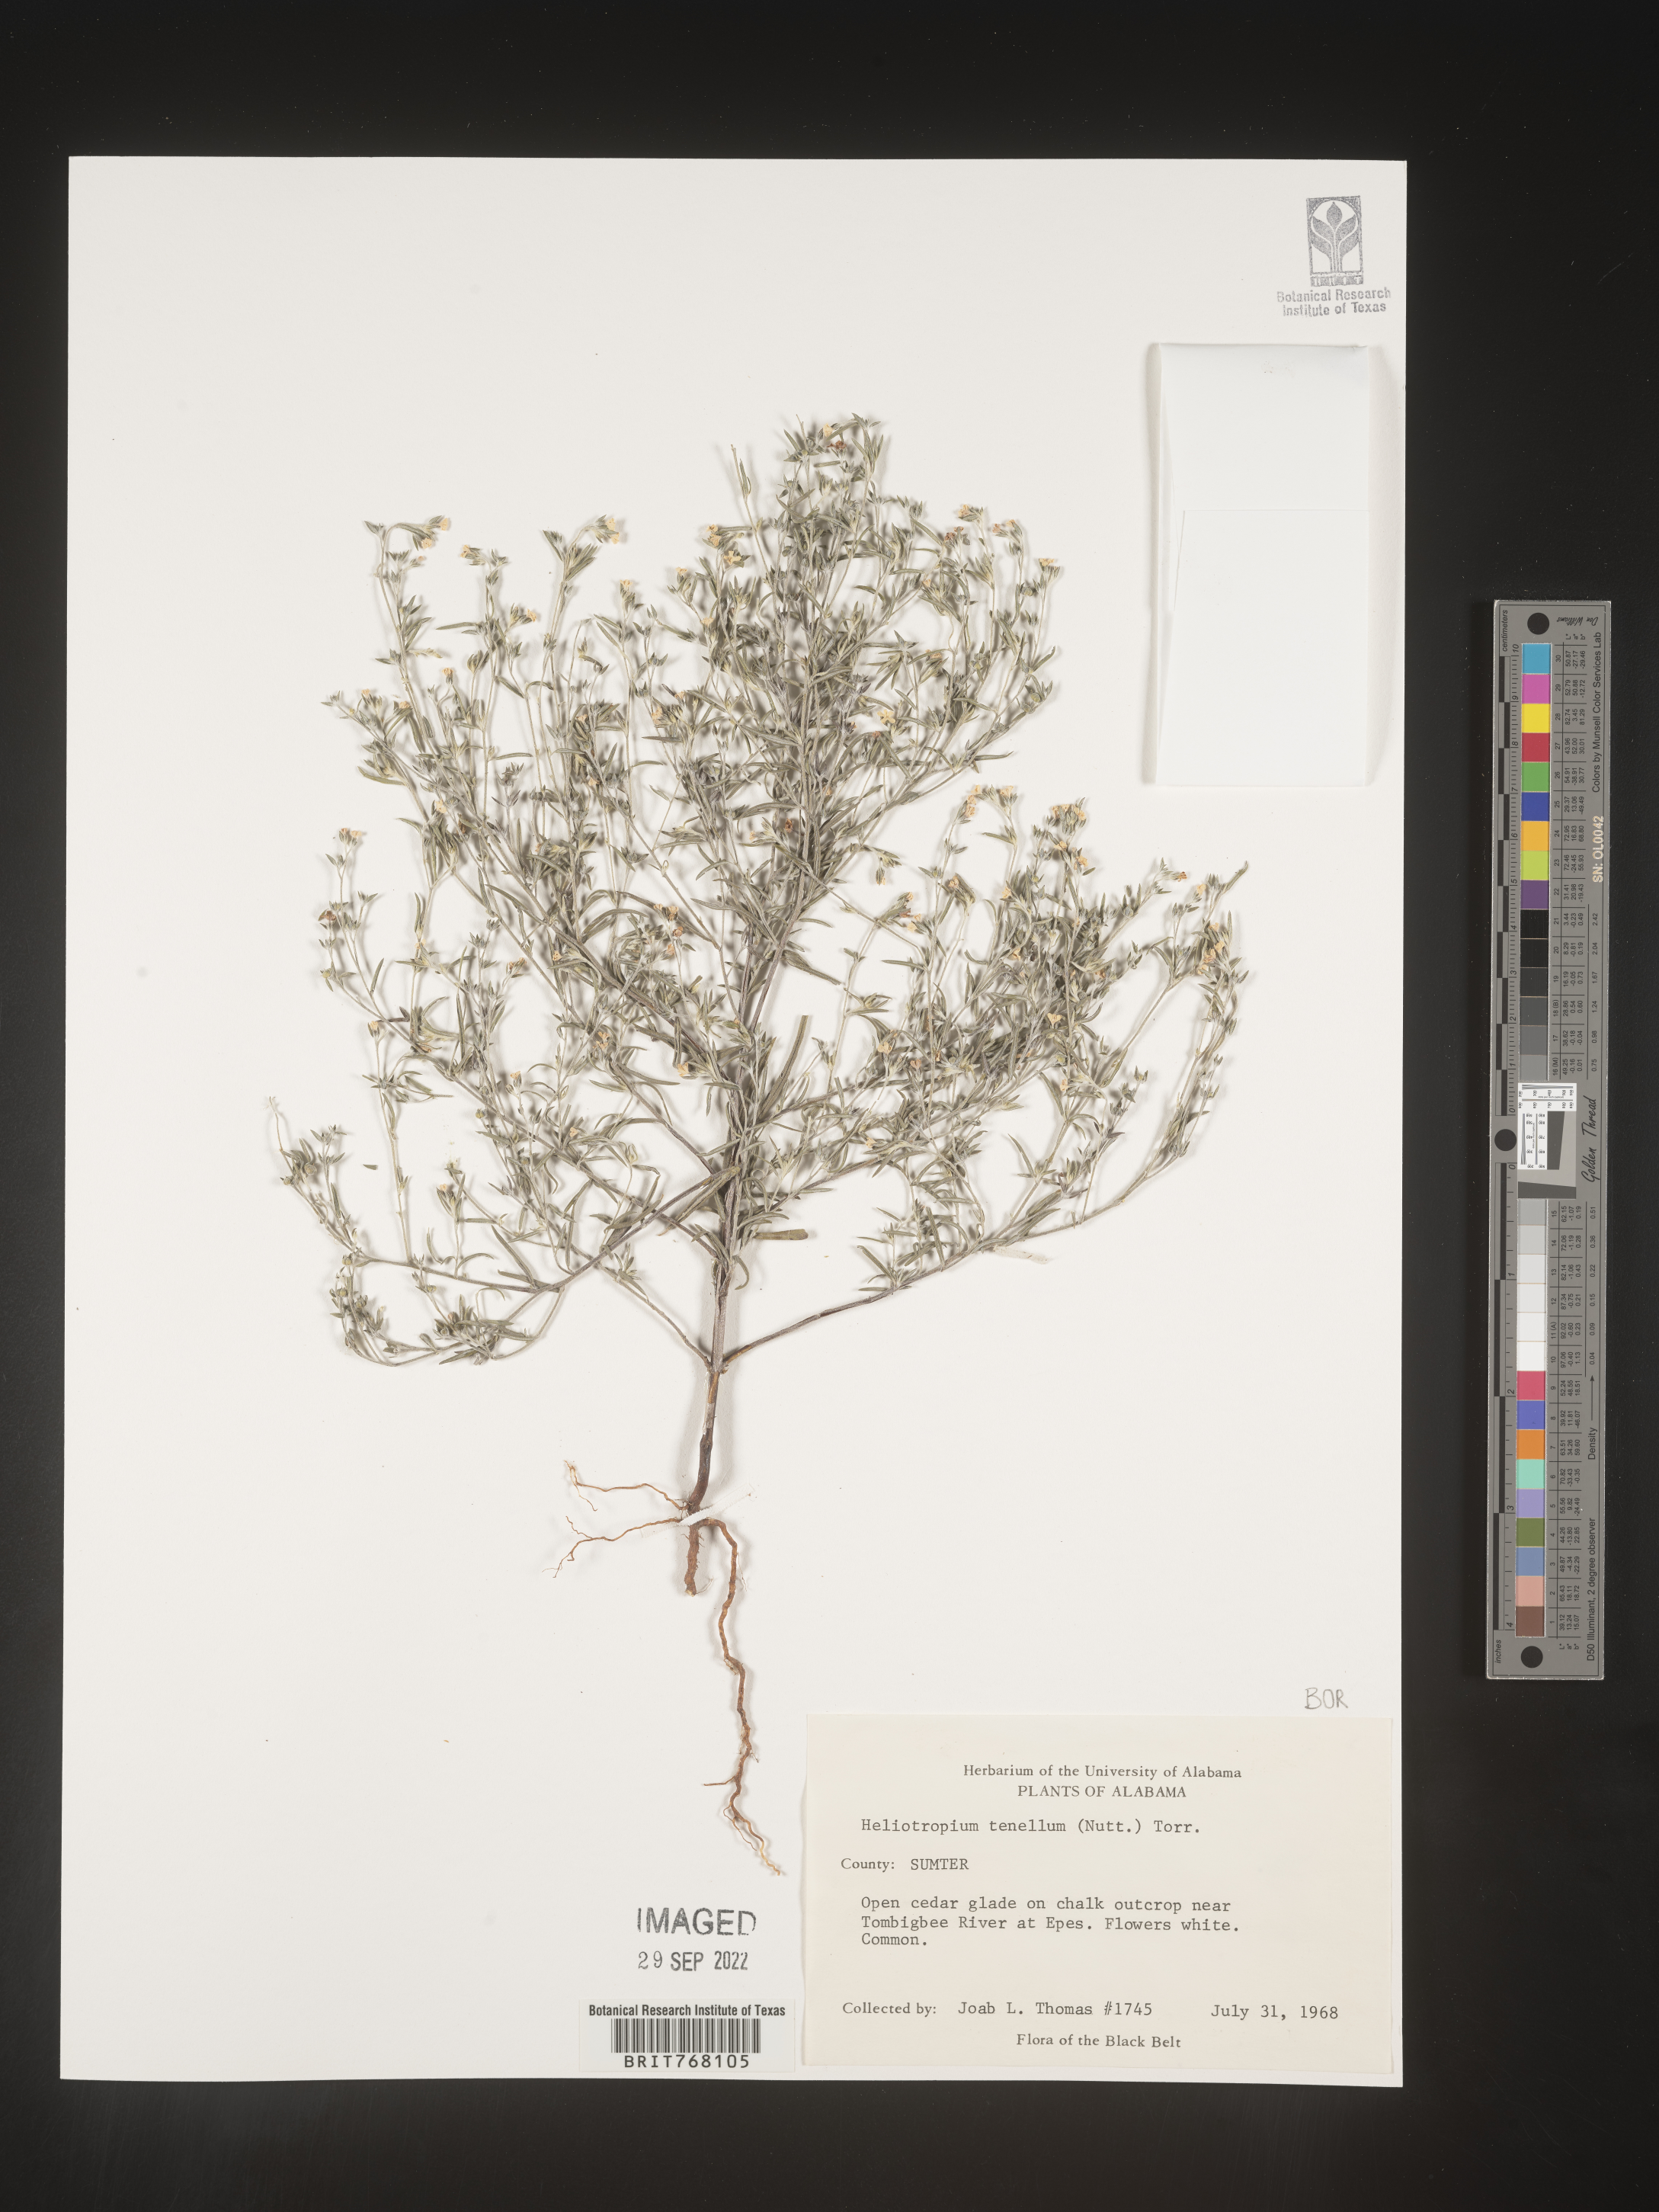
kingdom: Plantae
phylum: Tracheophyta
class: Magnoliopsida
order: Boraginales
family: Heliotropiaceae
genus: Euploca
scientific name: Euploca tenella
